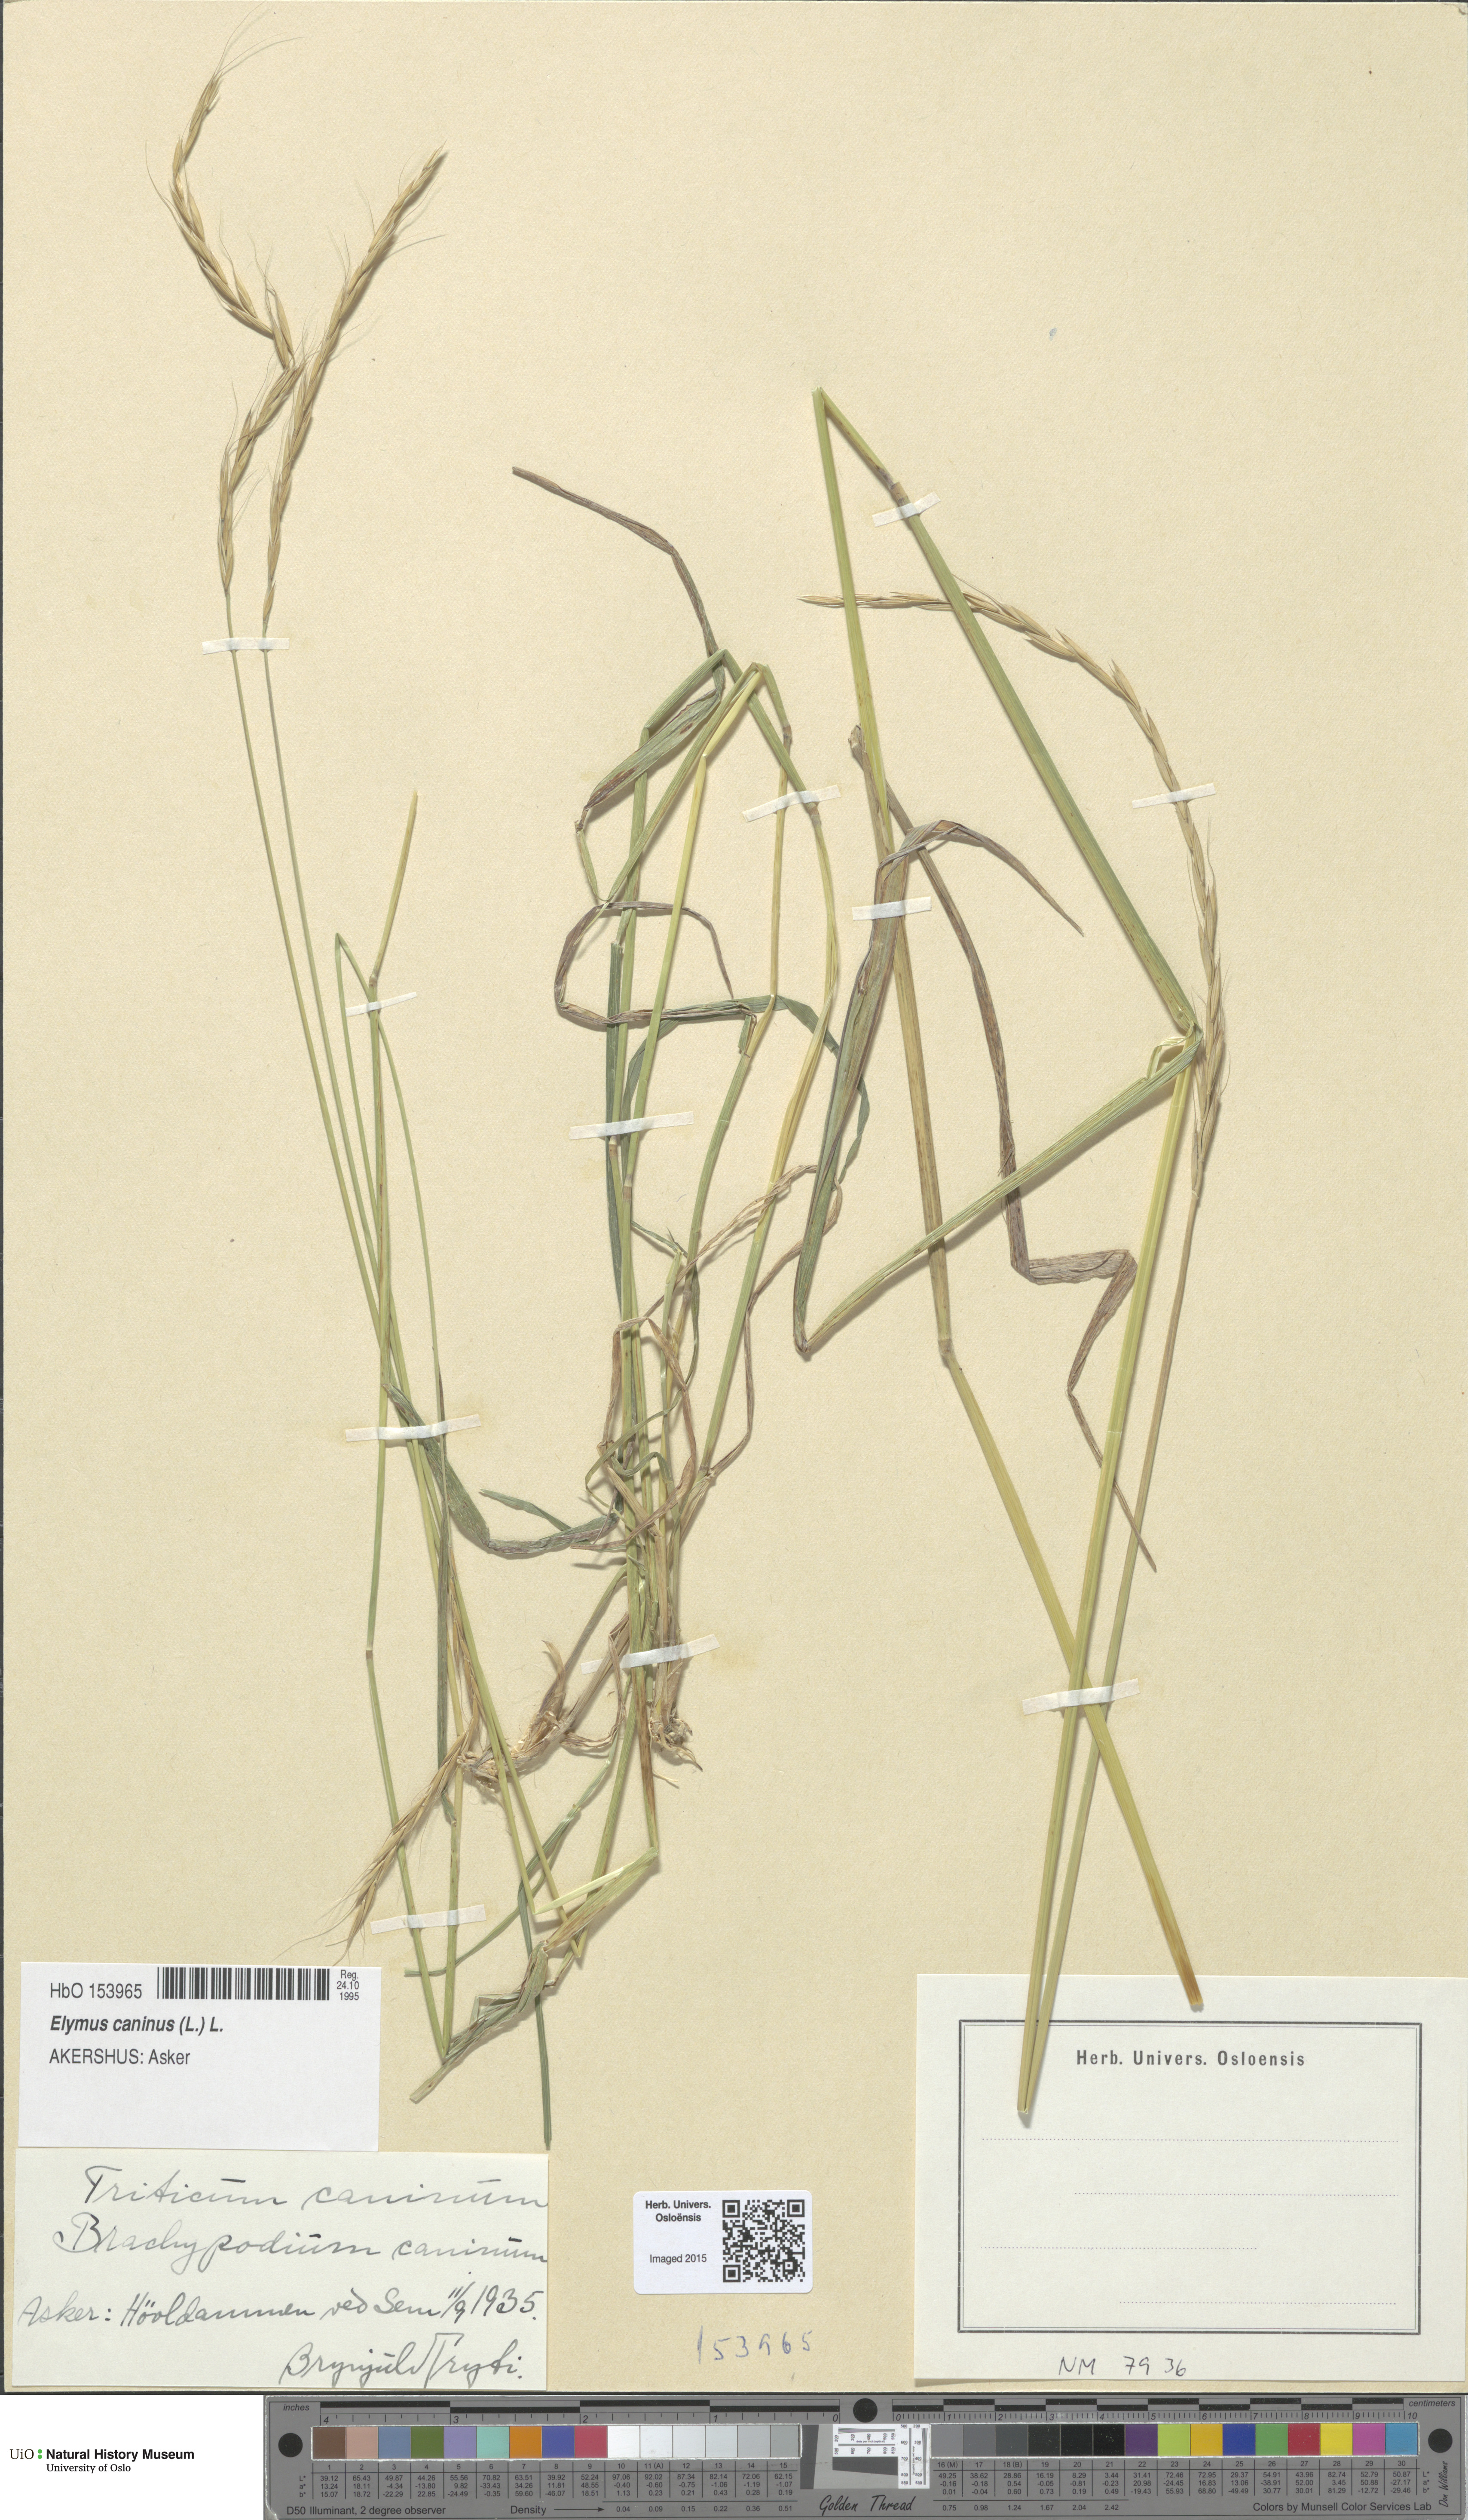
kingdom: Plantae
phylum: Tracheophyta
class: Liliopsida
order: Poales
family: Poaceae
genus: Elymus
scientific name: Elymus caninus
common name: Bearded couch
